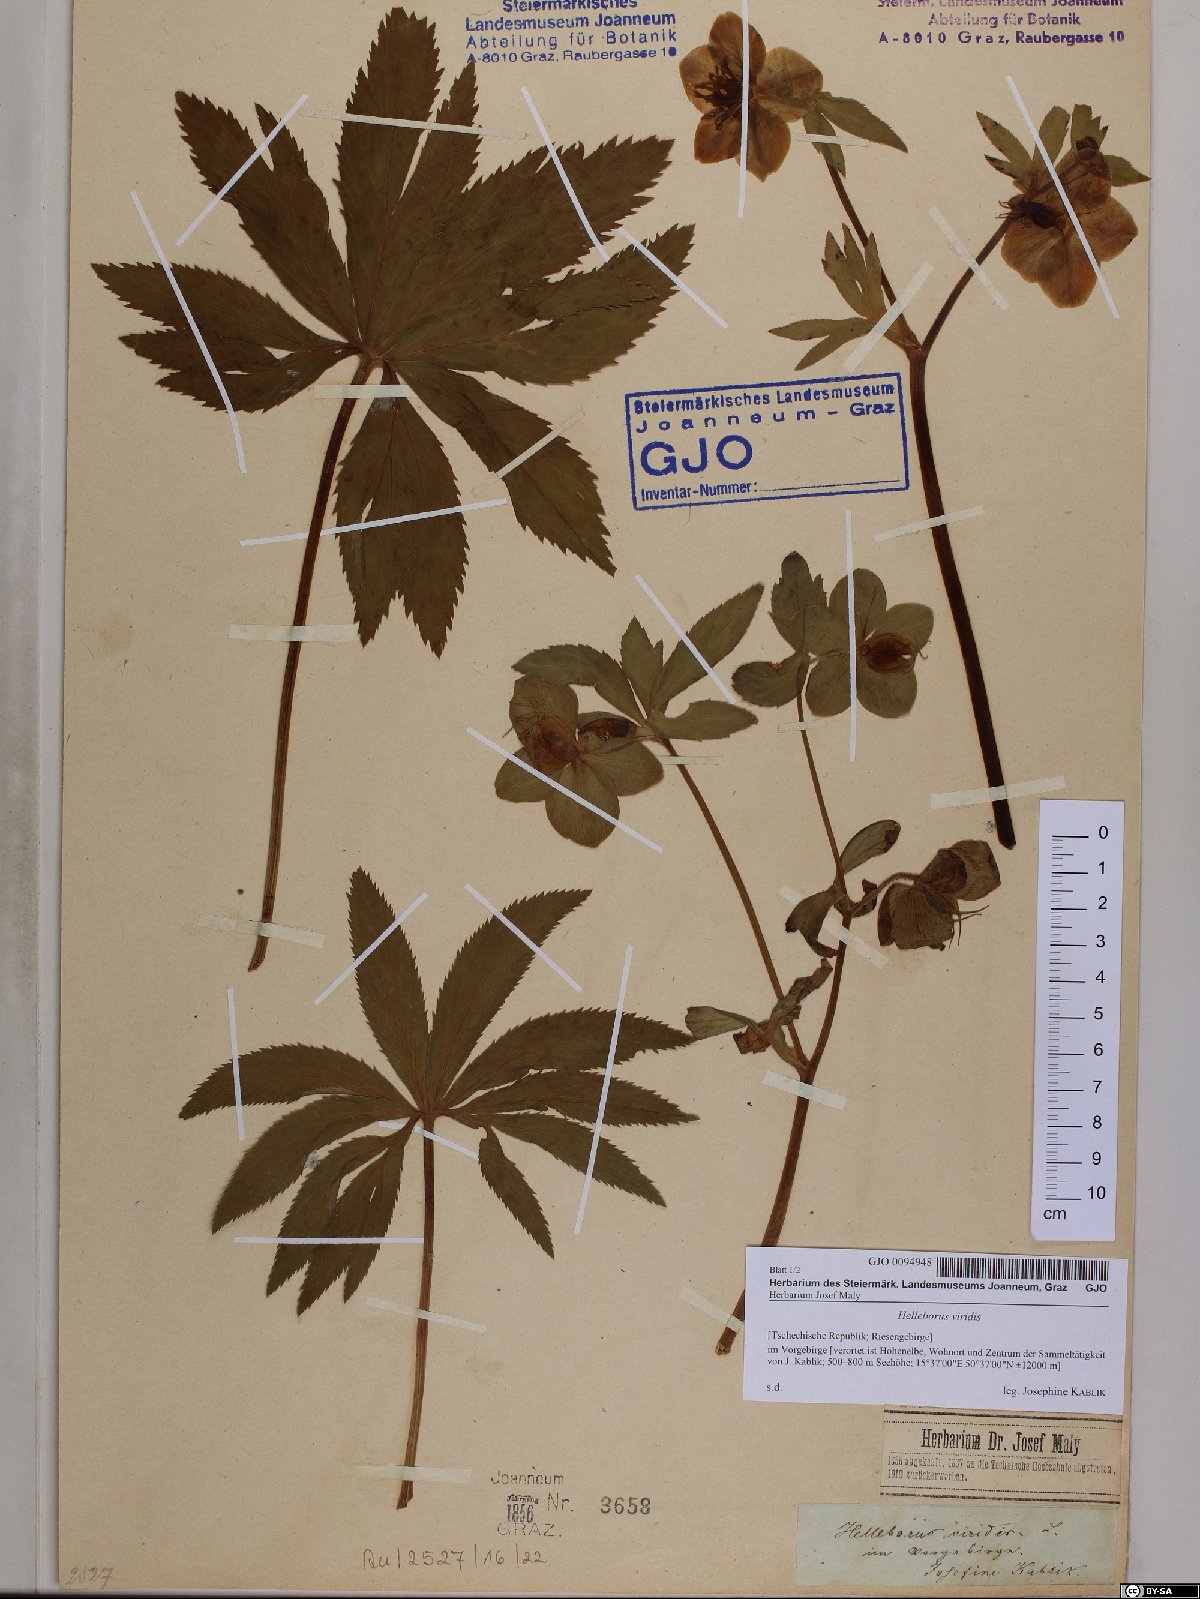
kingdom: Plantae
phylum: Tracheophyta
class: Magnoliopsida
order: Ranunculales
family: Ranunculaceae
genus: Helleborus
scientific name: Helleborus viridis
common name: Green hellebore
